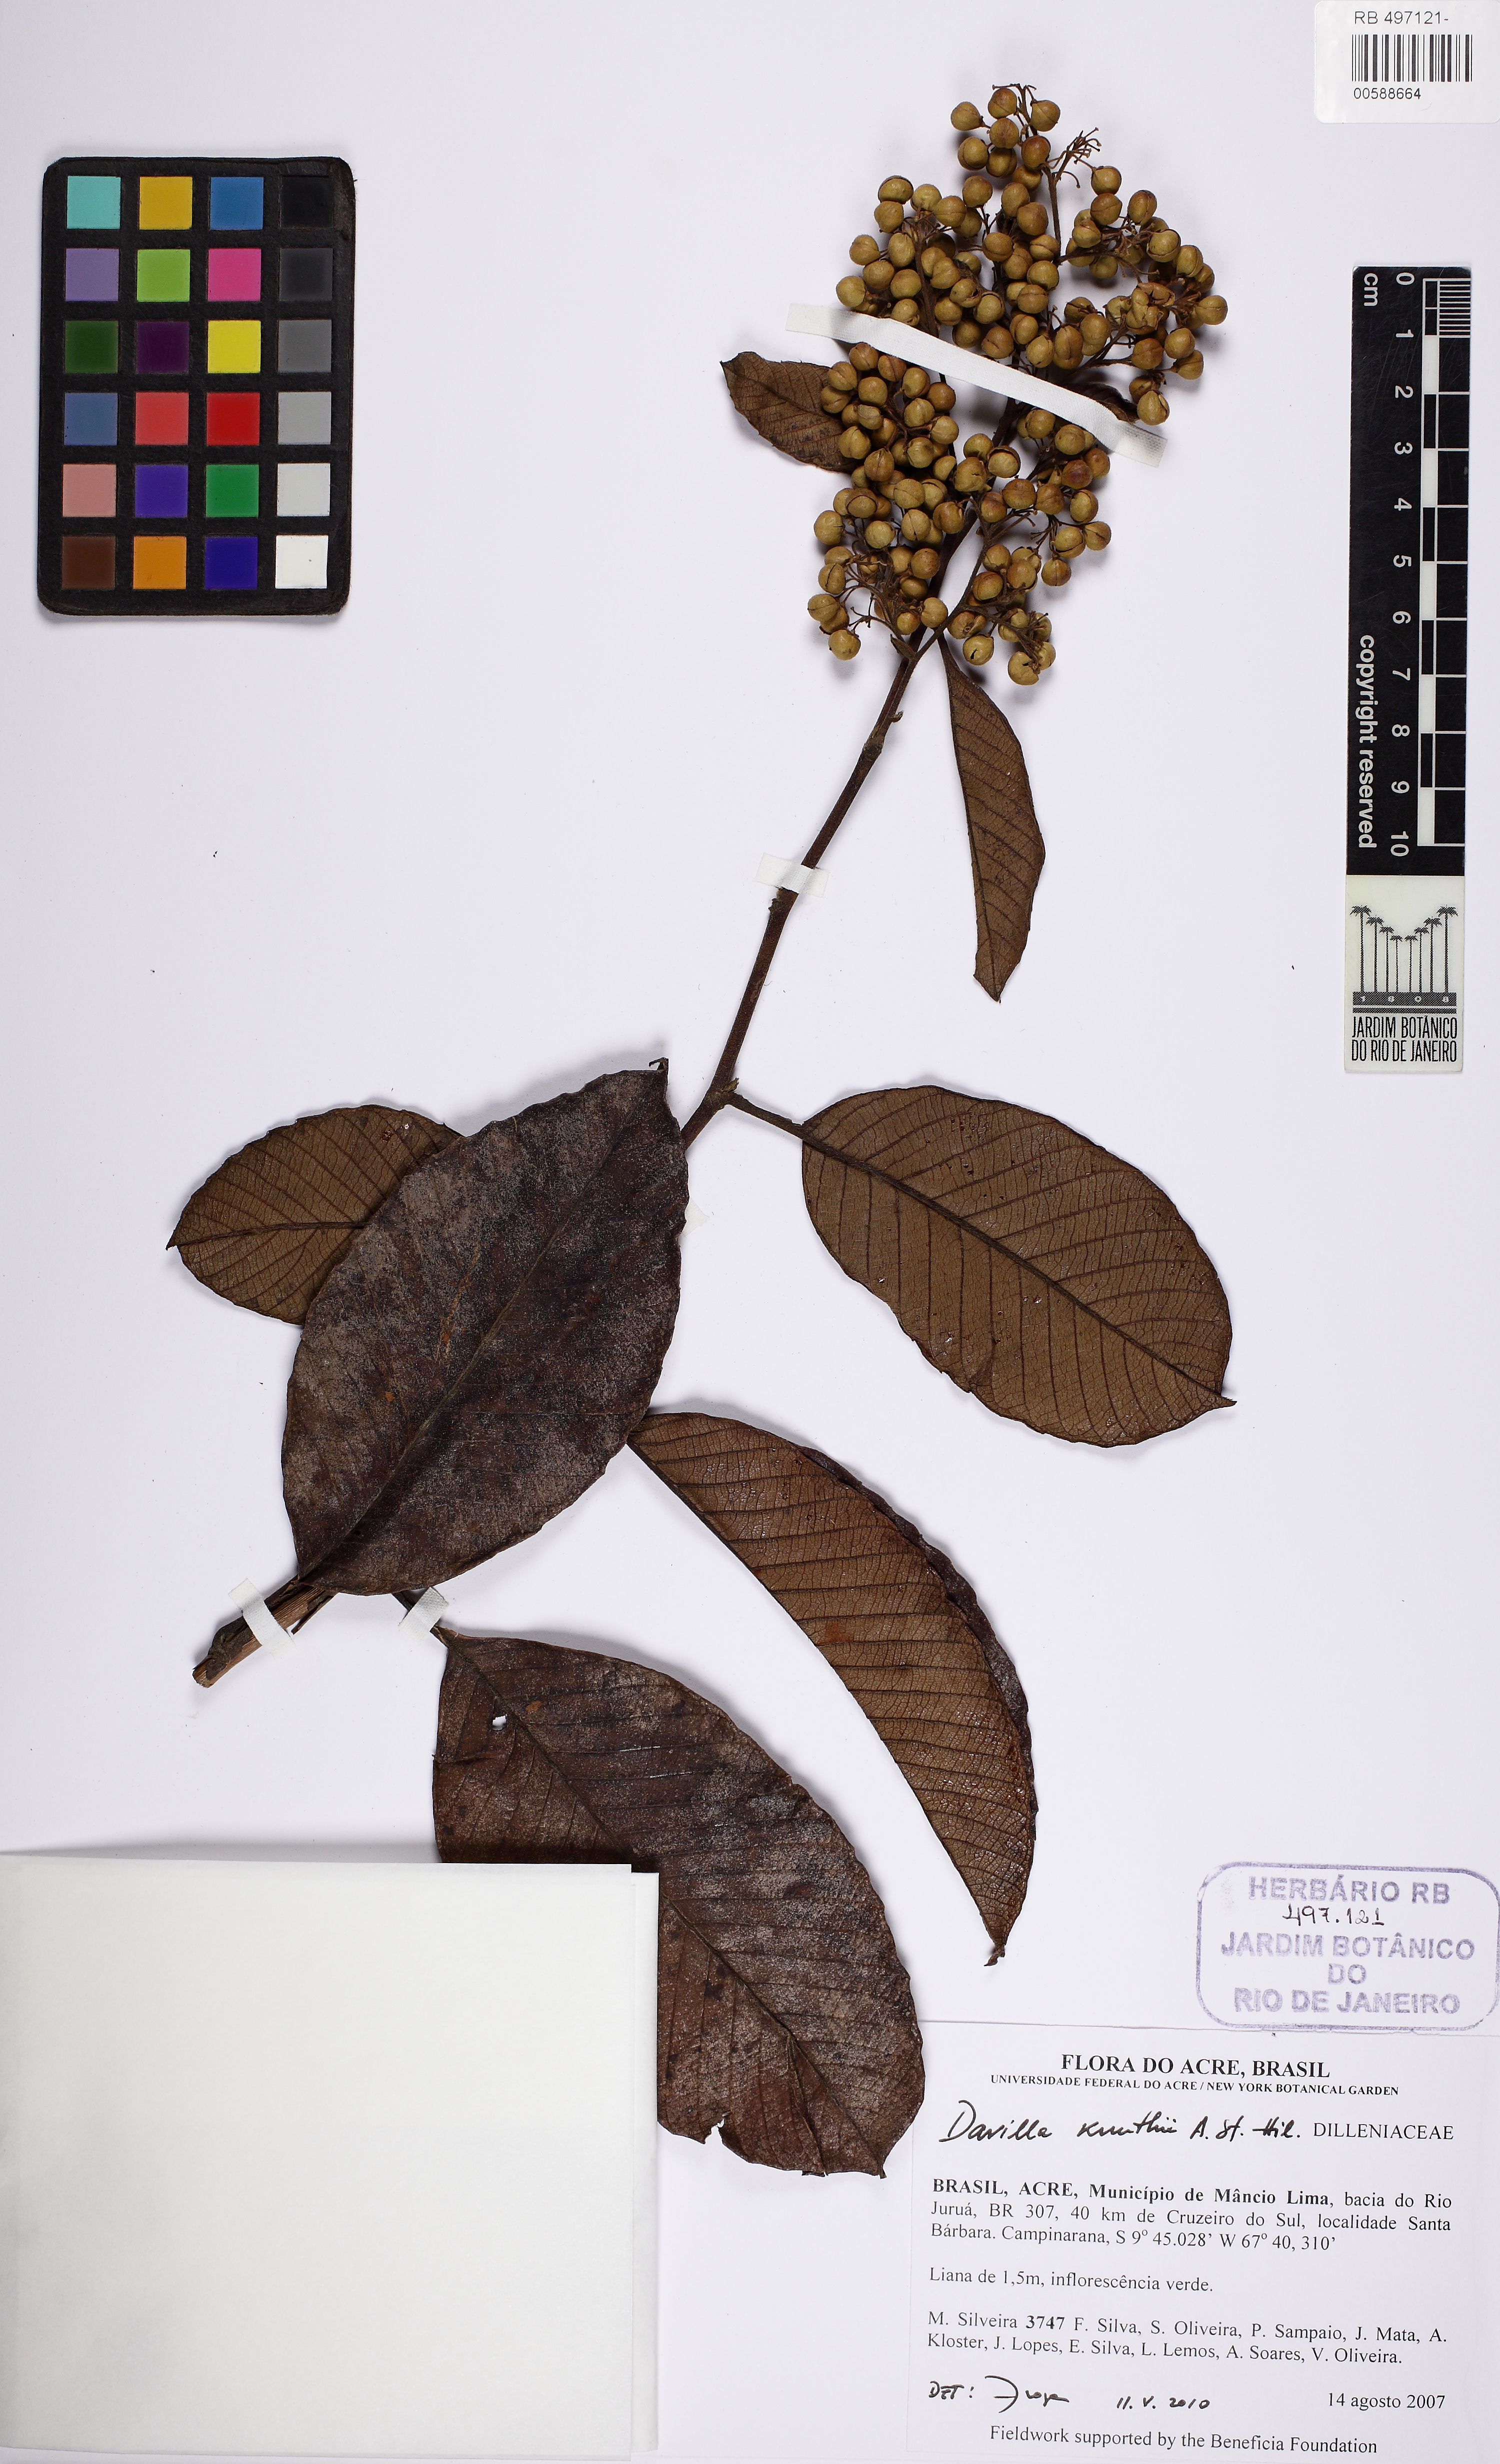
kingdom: Plantae
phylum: Tracheophyta
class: Magnoliopsida
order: Dilleniales
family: Dilleniaceae
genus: Davilla
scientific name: Davilla kunthii
